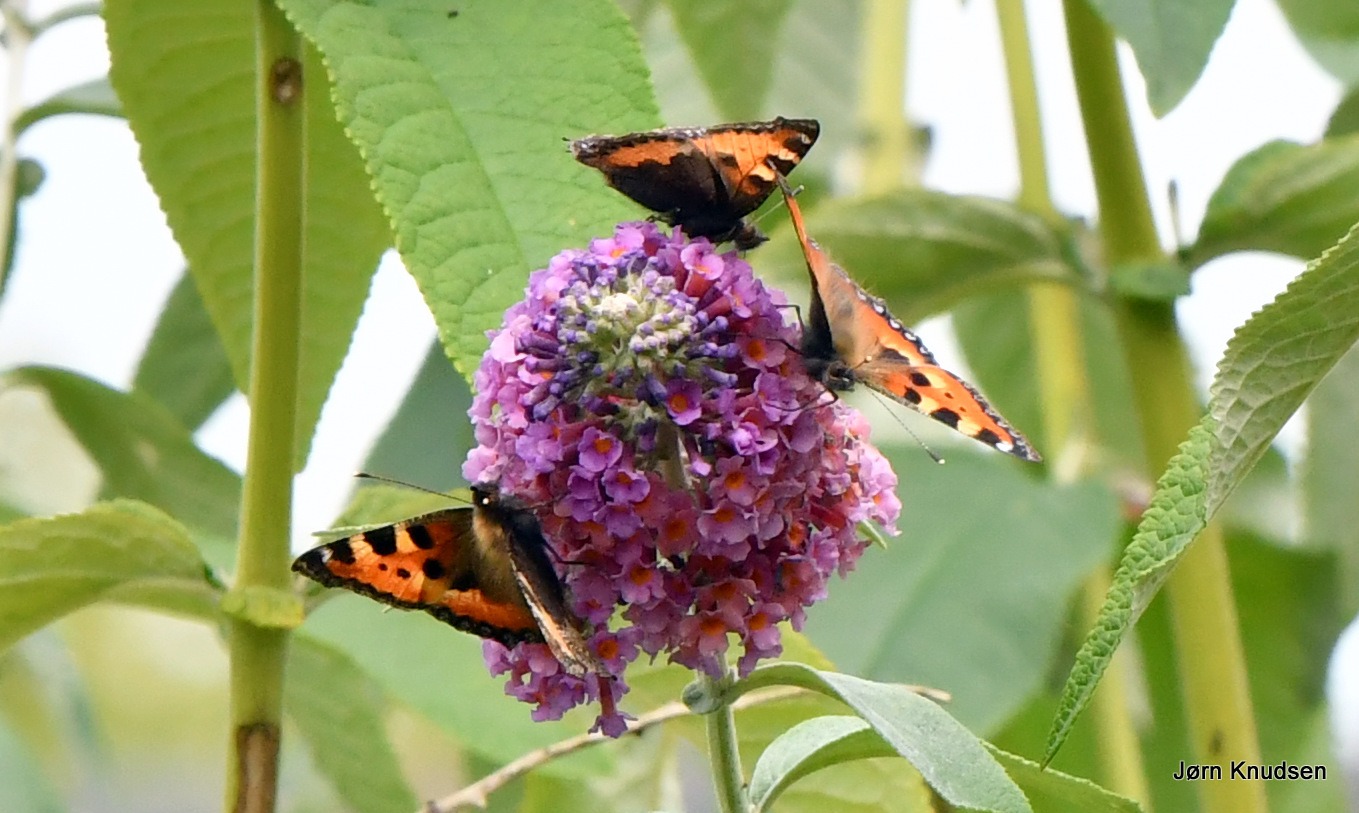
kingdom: Animalia
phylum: Arthropoda
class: Insecta
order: Lepidoptera
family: Nymphalidae
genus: Aglais
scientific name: Aglais urticae
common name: Nældens takvinge
